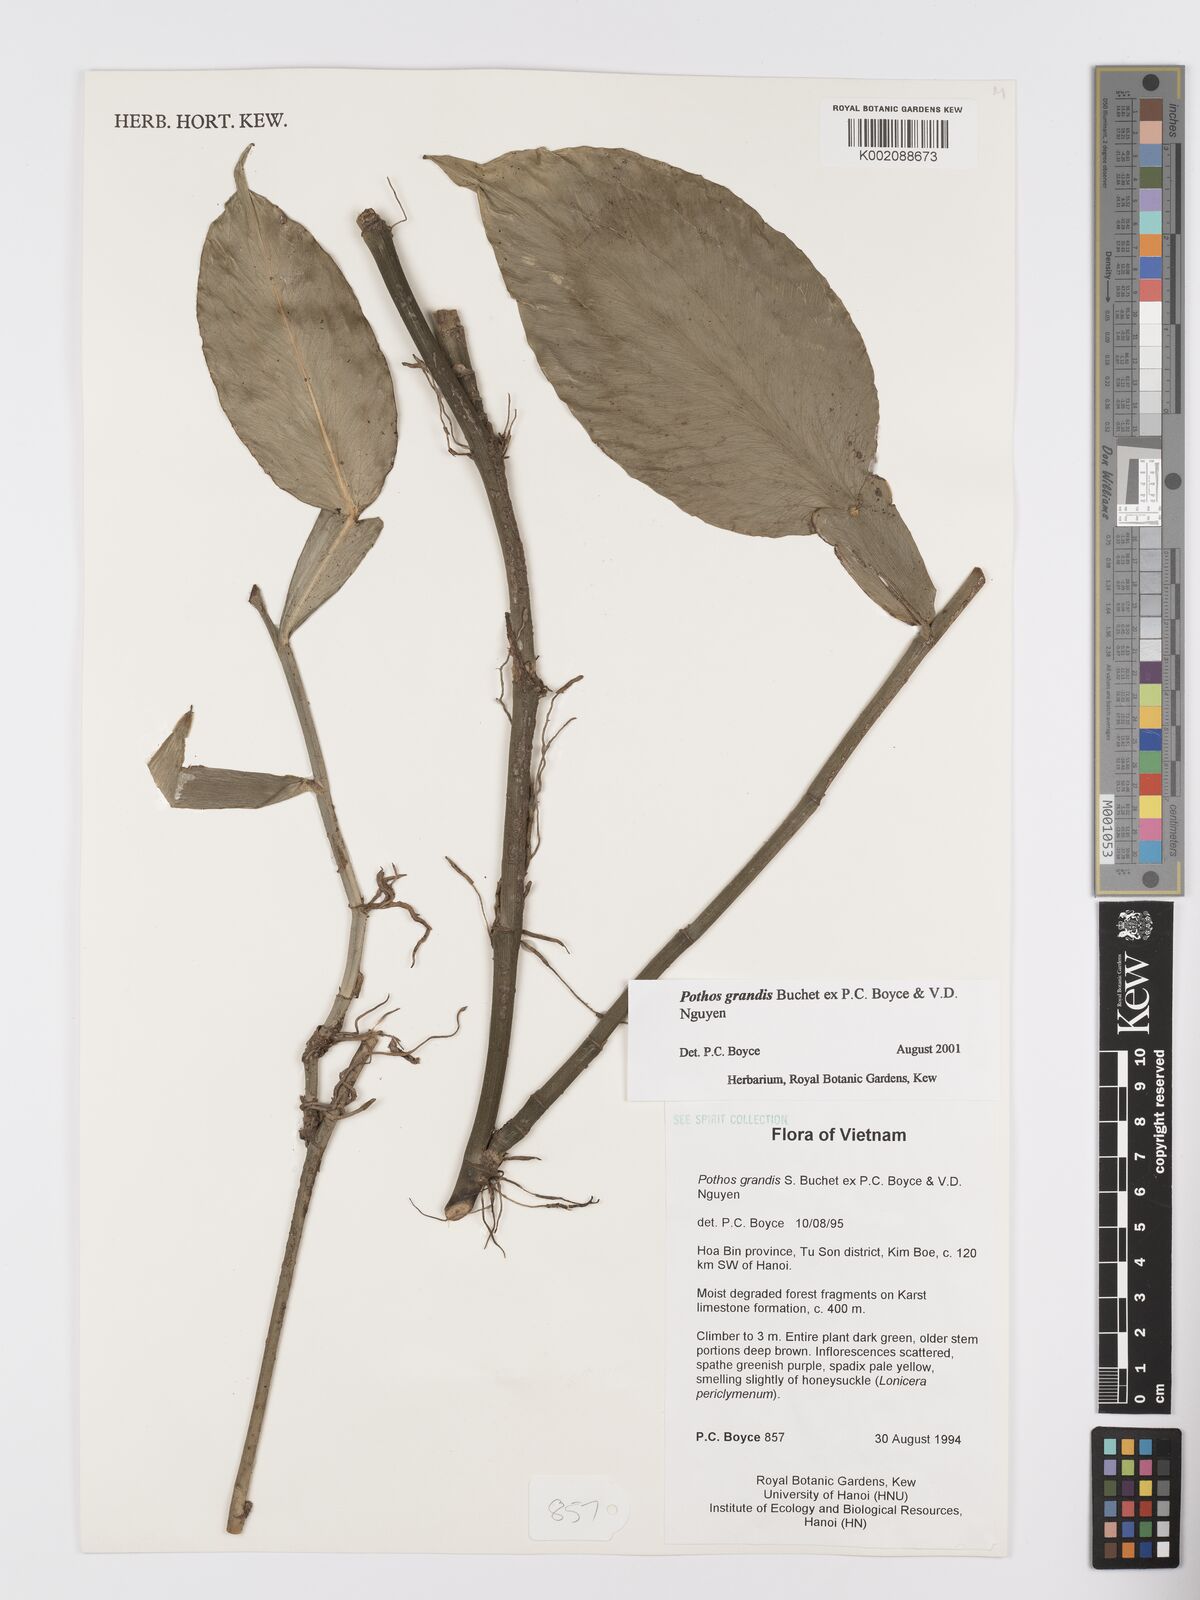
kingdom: Plantae
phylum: Tracheophyta
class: Liliopsida
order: Alismatales
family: Araceae
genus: Pothos
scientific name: Pothos grandis
